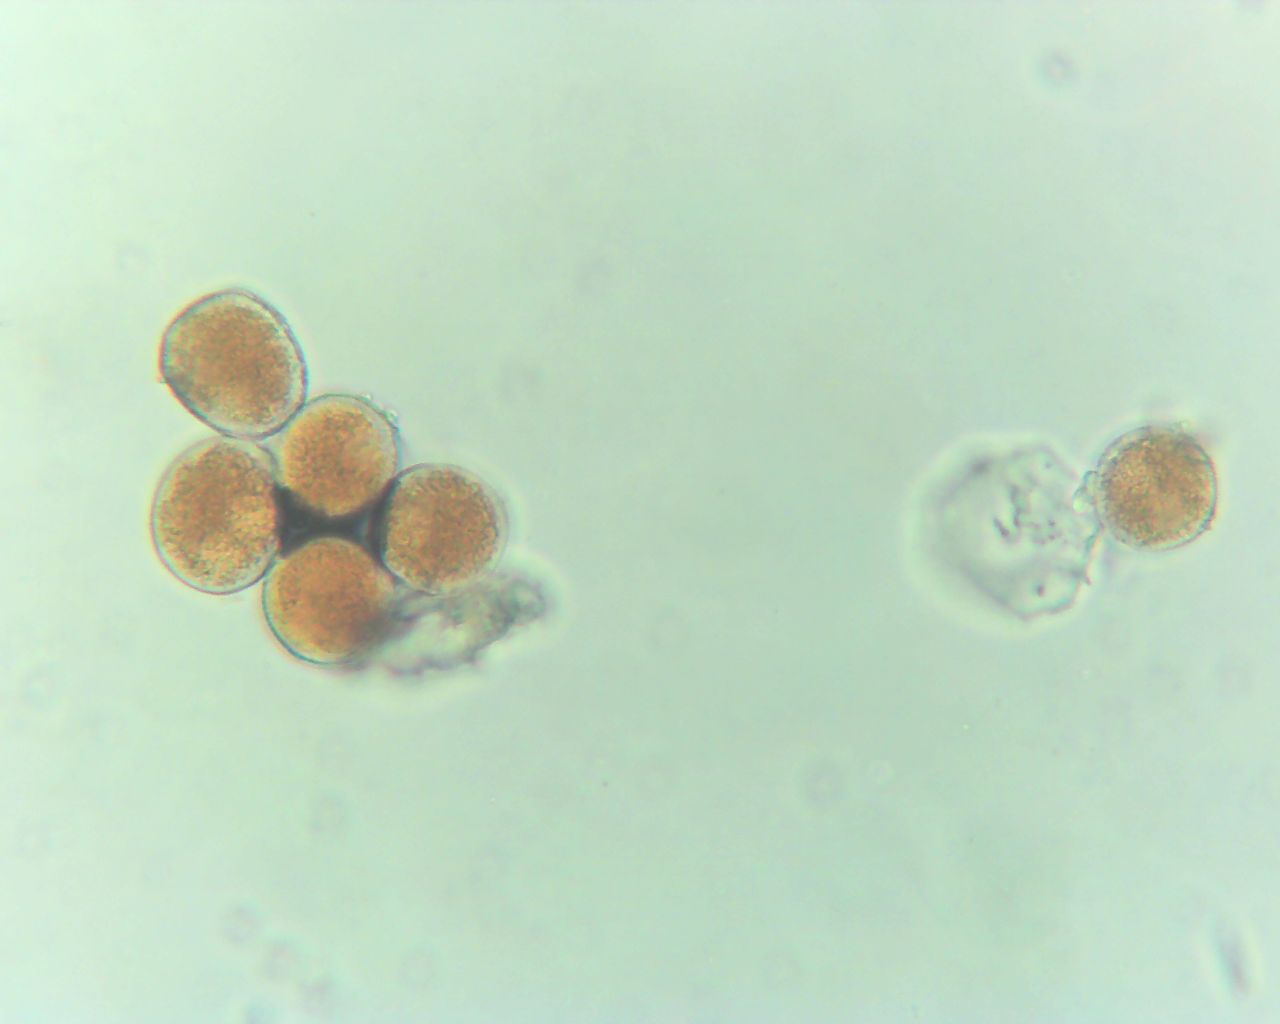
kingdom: Fungi
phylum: Basidiomycota
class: Pucciniomycetes
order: Pucciniales
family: Pucciniaceae
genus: Uromyces
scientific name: Uromyces betae
